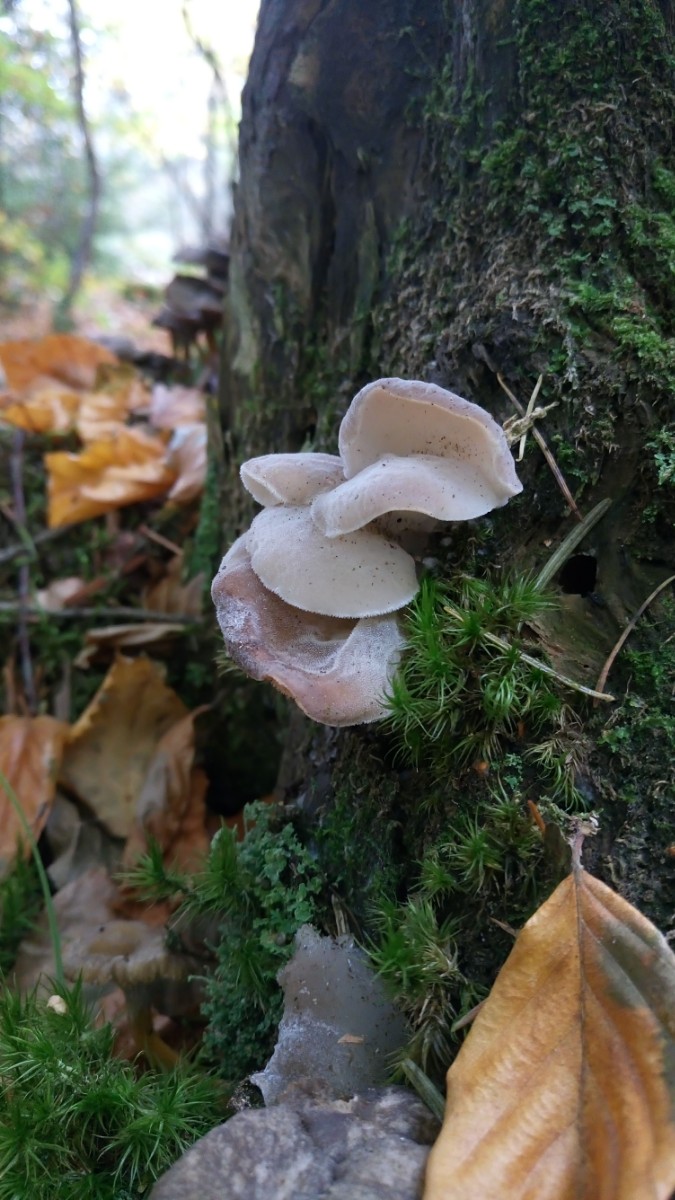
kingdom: Fungi
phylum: Basidiomycota
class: Tremellomycetes
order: Tremellales
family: Exidiaceae
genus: Pseudohydnum
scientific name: Pseudohydnum
